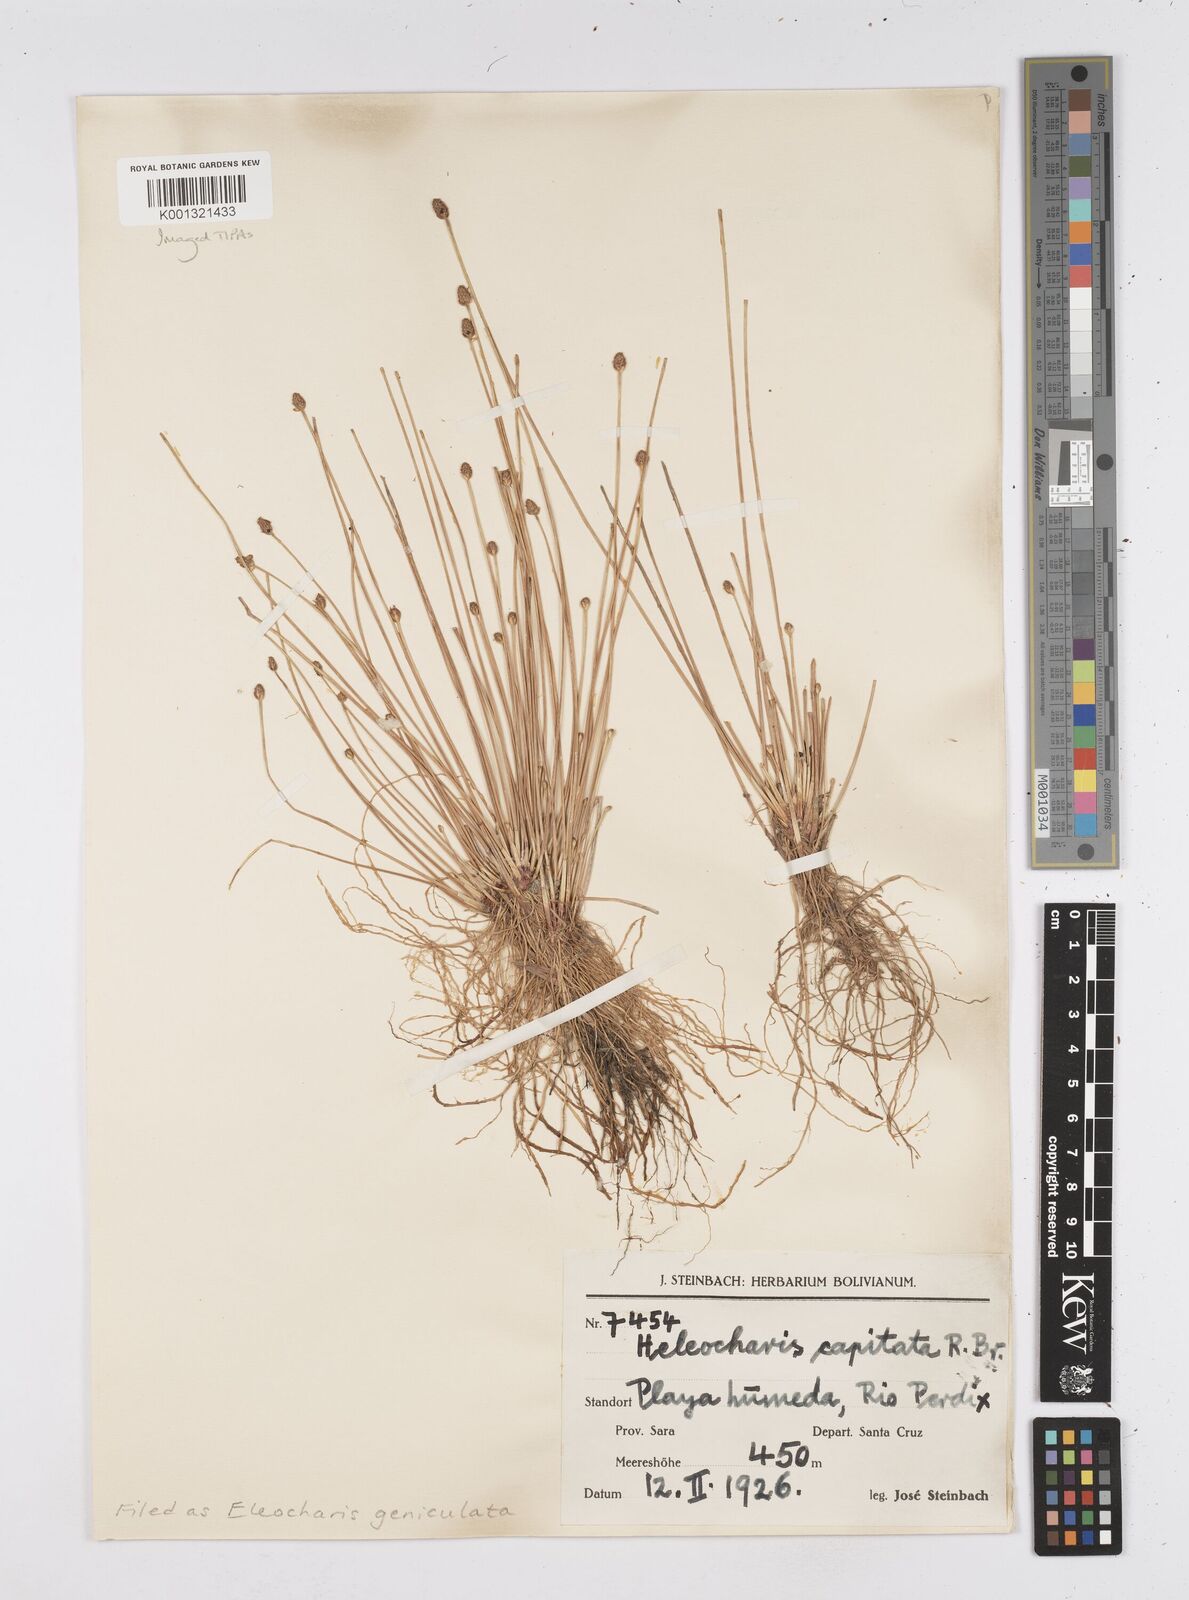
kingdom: Plantae
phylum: Tracheophyta
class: Liliopsida
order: Poales
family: Cyperaceae
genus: Eleocharis
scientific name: Eleocharis geniculata
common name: Canada spikesedge
